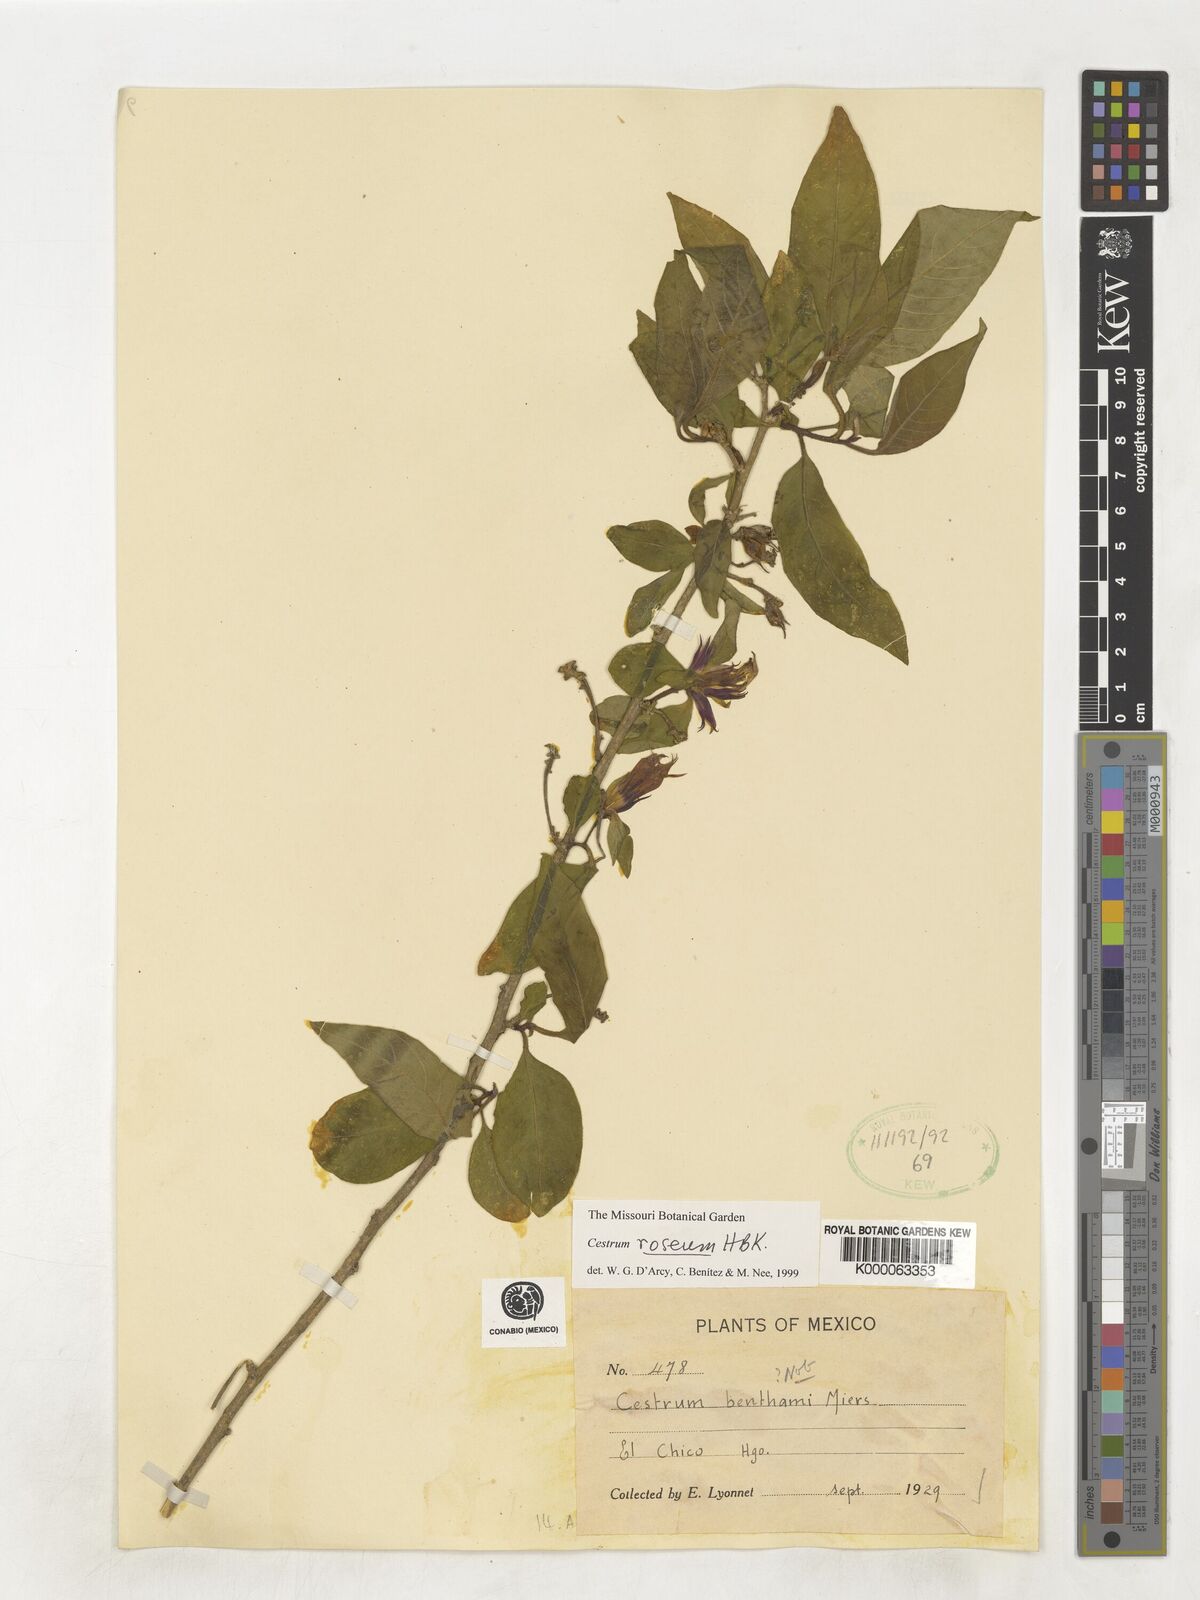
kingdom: Plantae
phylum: Tracheophyta
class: Magnoliopsida
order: Solanales
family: Solanaceae
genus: Cestrum
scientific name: Cestrum
